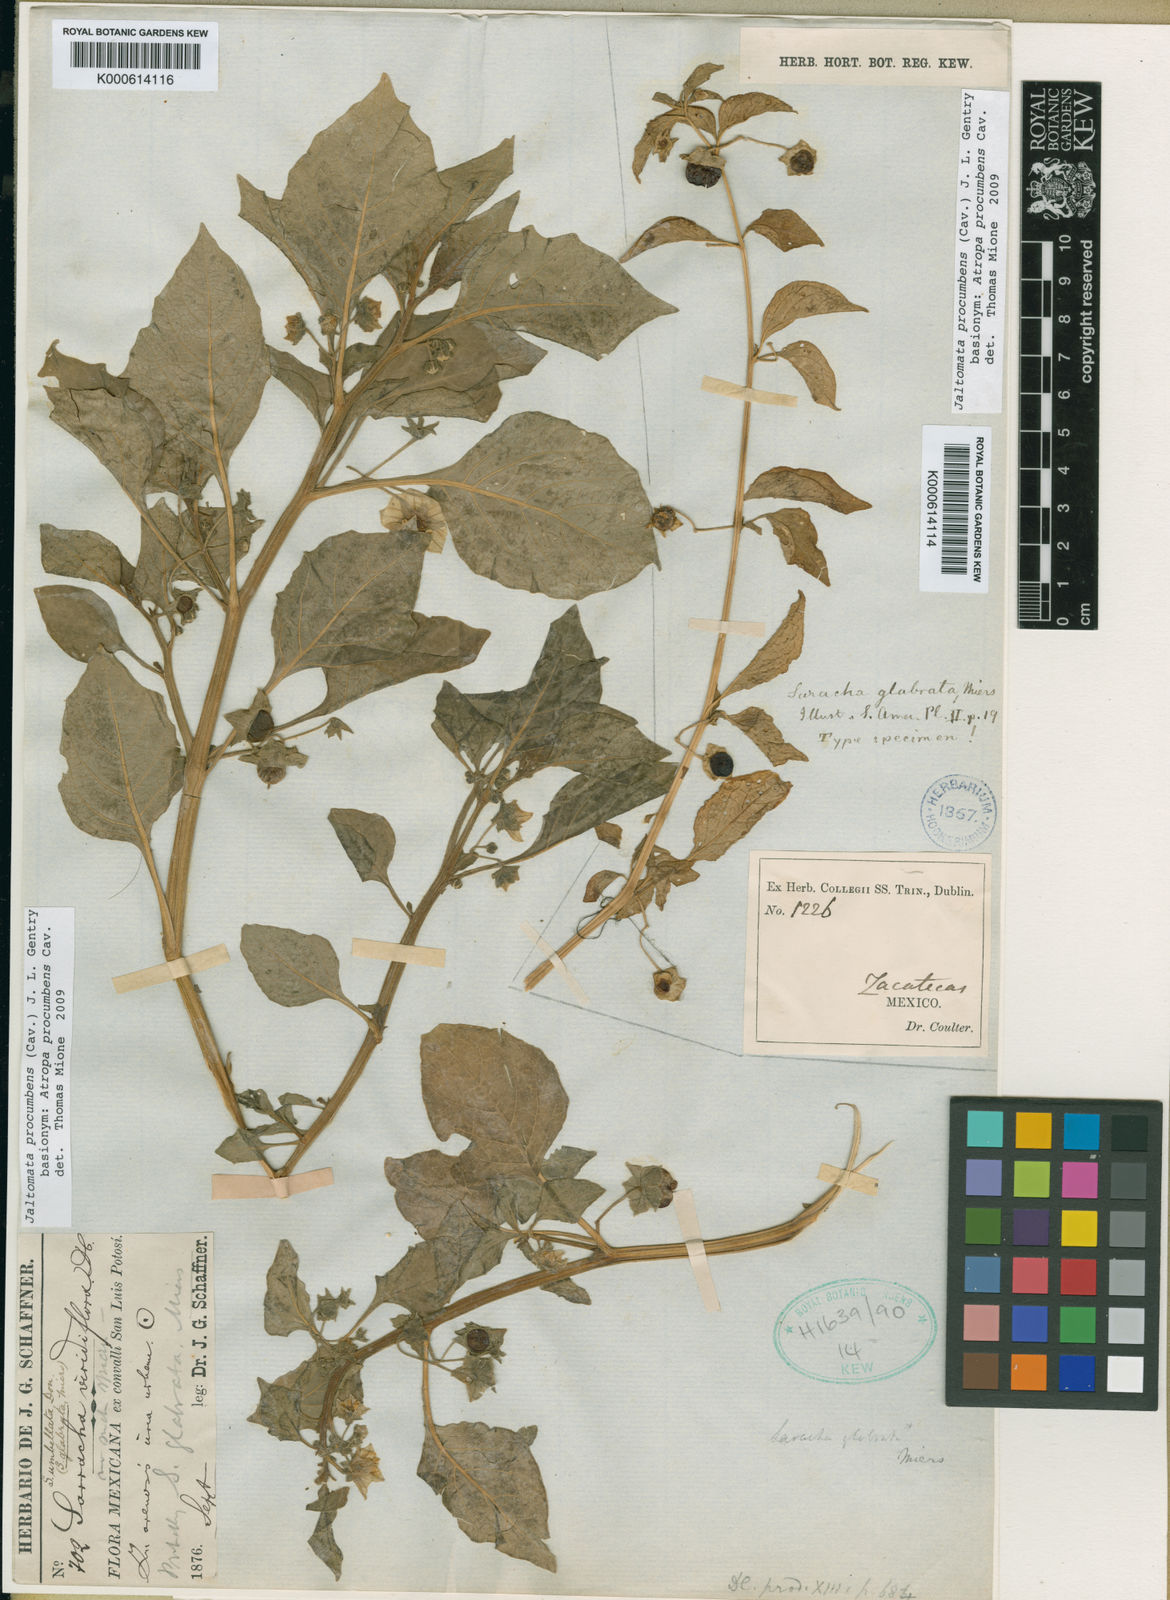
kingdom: Plantae
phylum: Tracheophyta
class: Magnoliopsida
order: Solanales
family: Solanaceae
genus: Jaltomata
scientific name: Jaltomata procumbens
